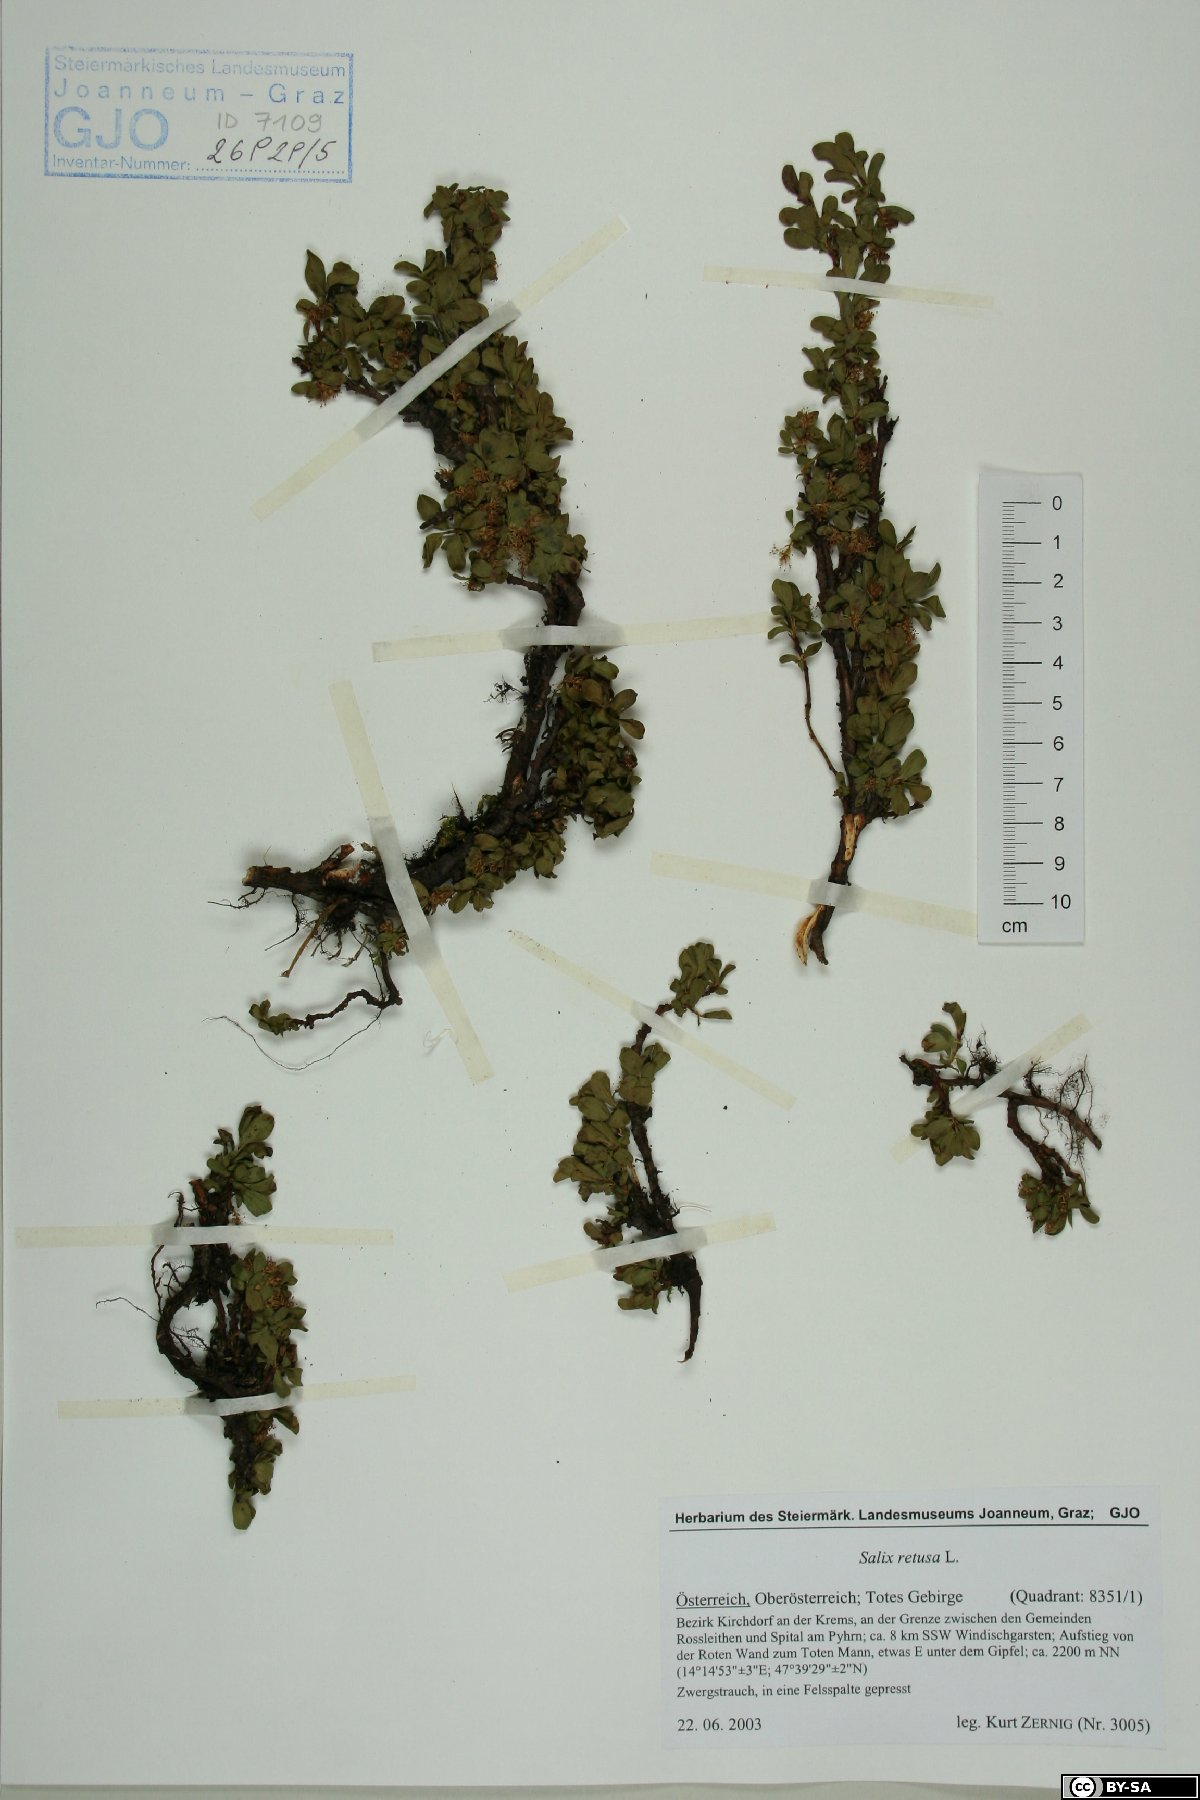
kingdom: Plantae
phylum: Tracheophyta
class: Magnoliopsida
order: Malpighiales
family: Salicaceae
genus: Salix
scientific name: Salix retusa
